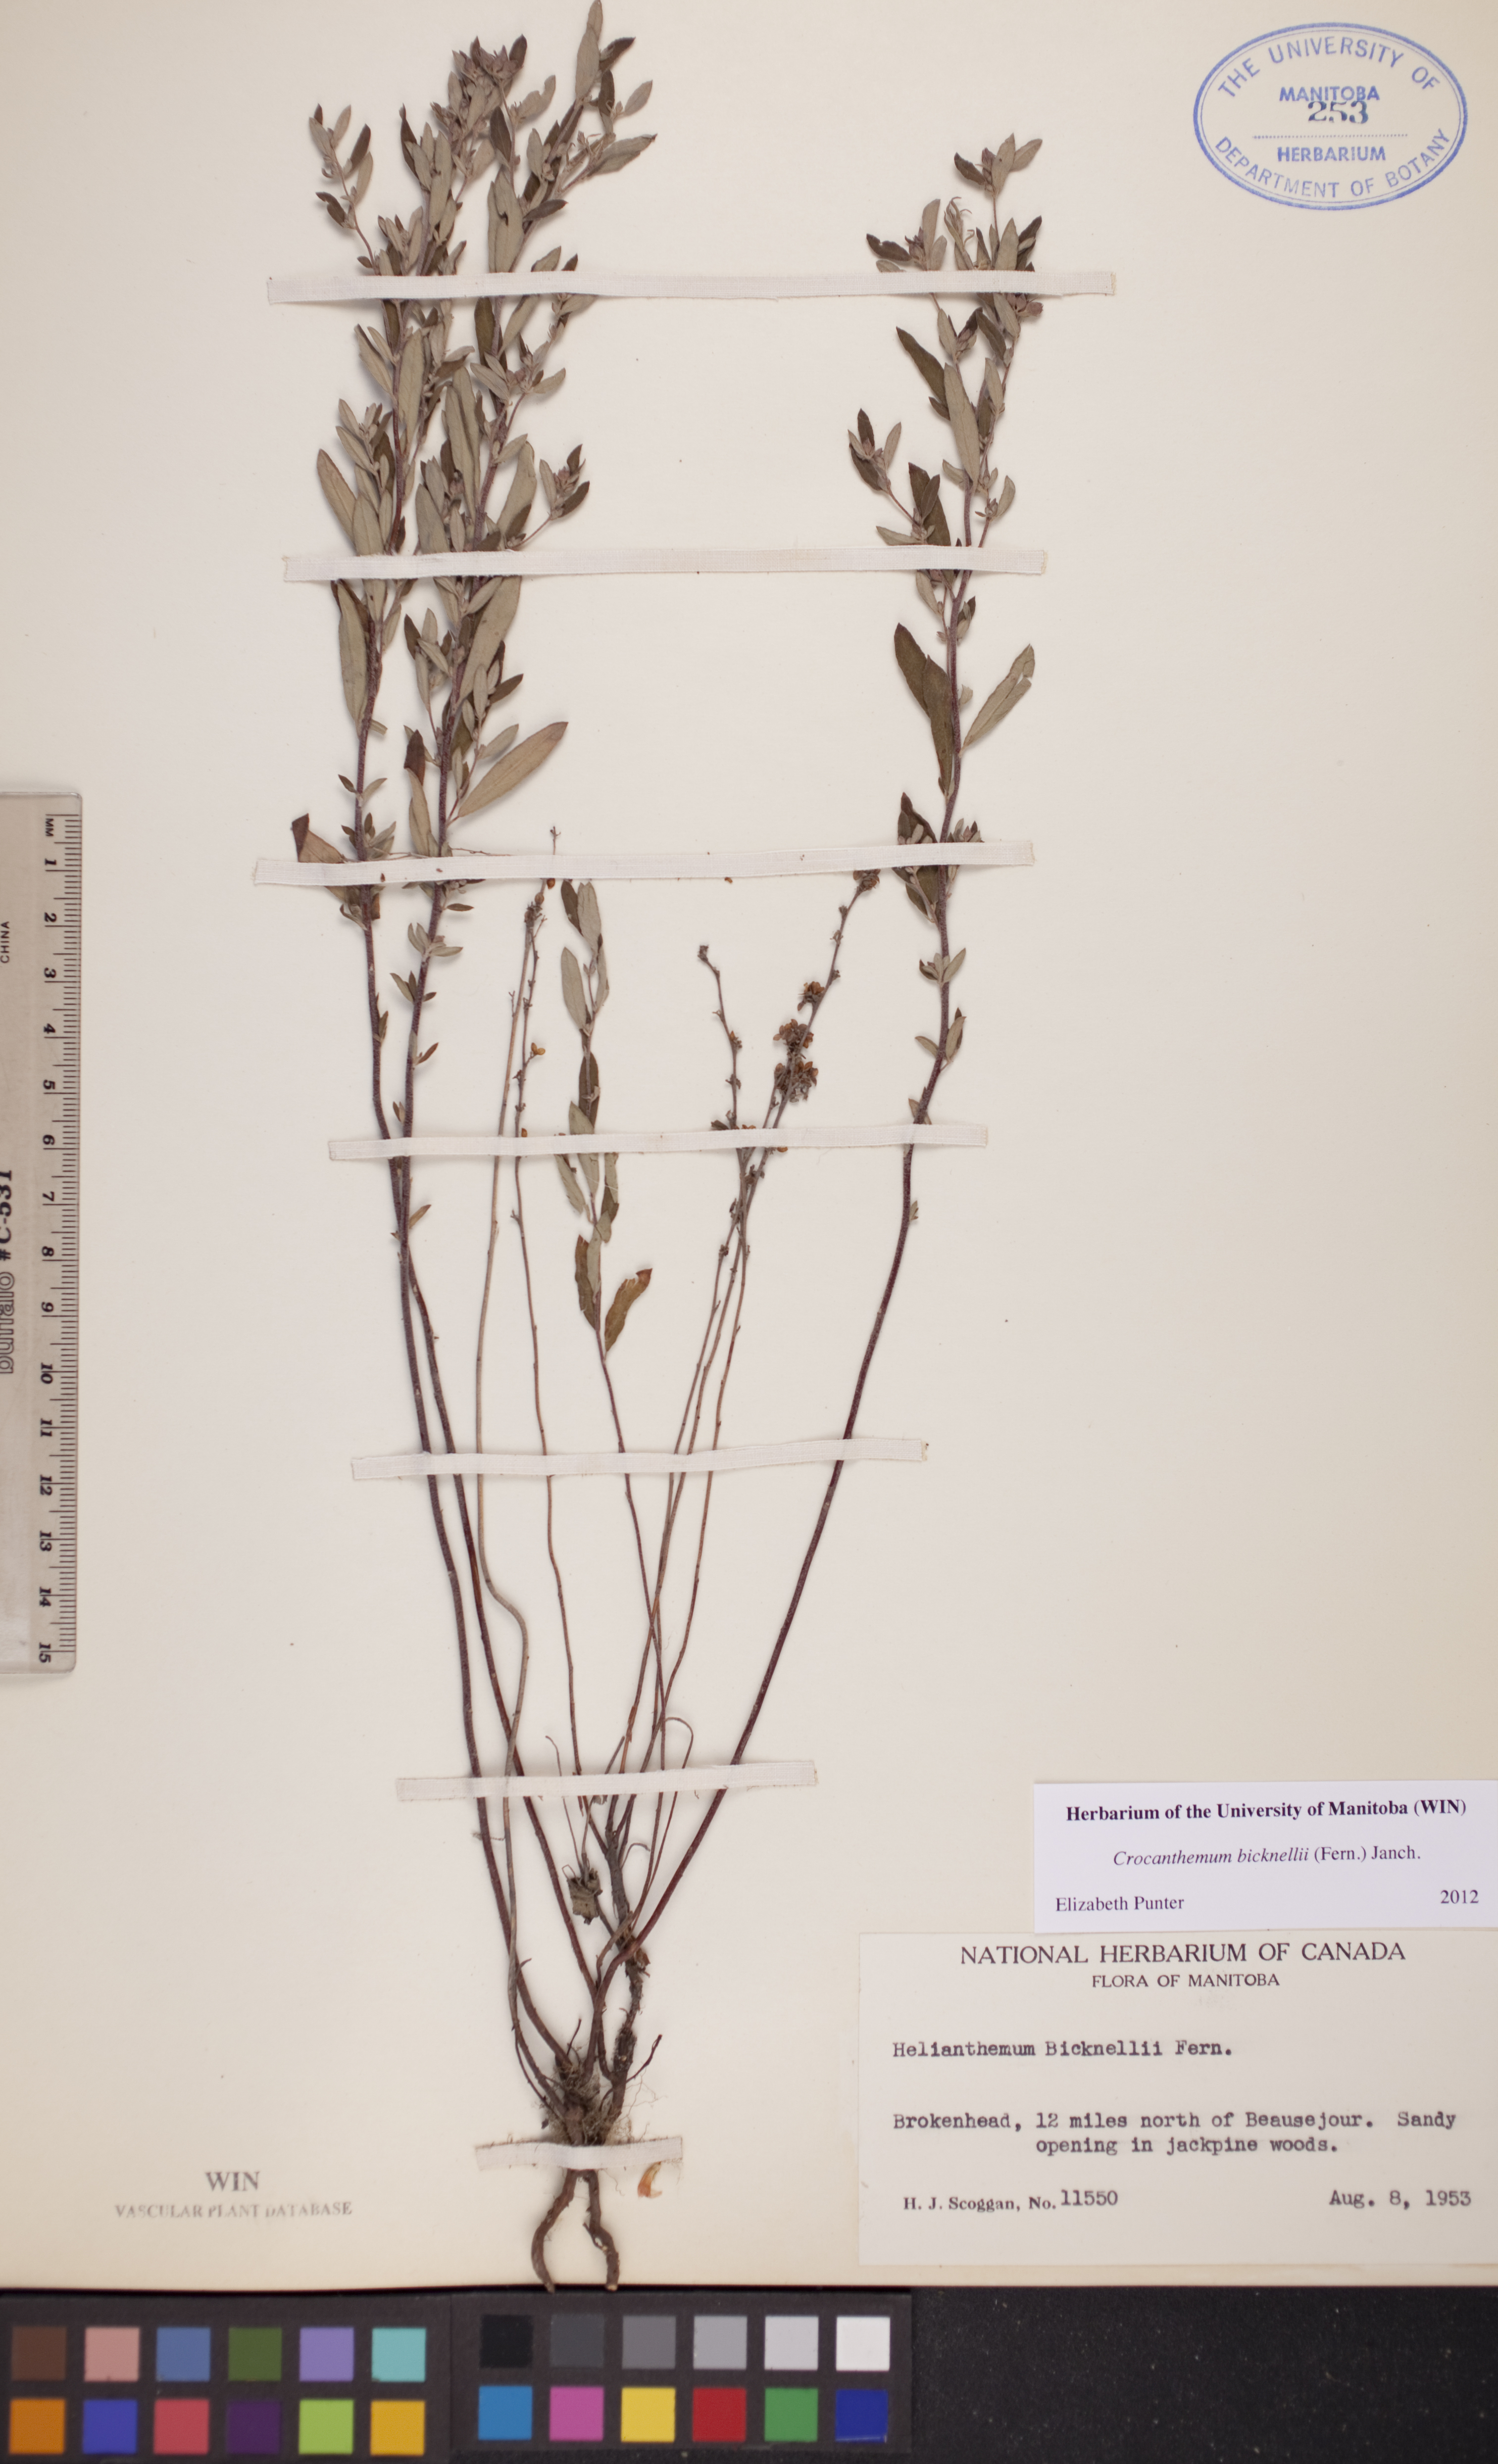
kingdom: Plantae
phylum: Tracheophyta
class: Magnoliopsida
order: Malvales
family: Cistaceae
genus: Crocanthemum
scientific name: Crocanthemum bicknellii
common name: Hoary frostweed
